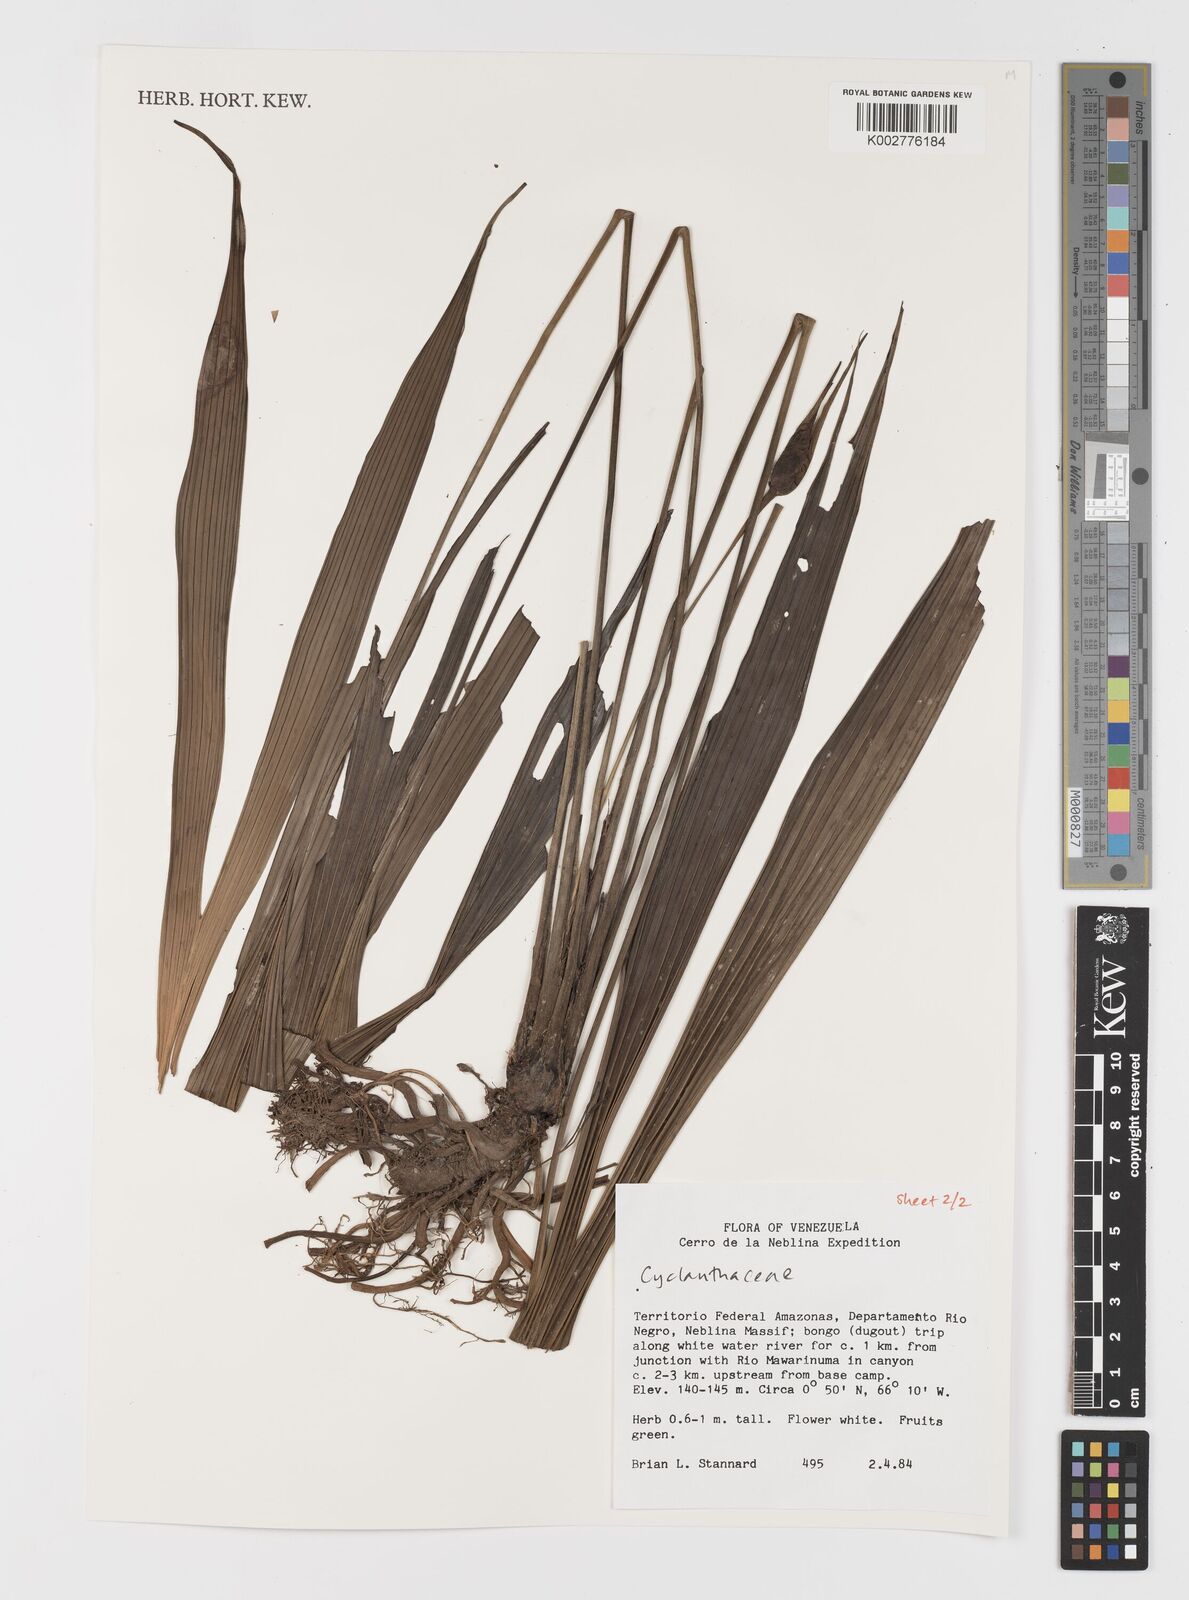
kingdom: Plantae
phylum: Tracheophyta
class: Liliopsida
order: Pandanales
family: Cyclanthaceae
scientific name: Cyclanthaceae
